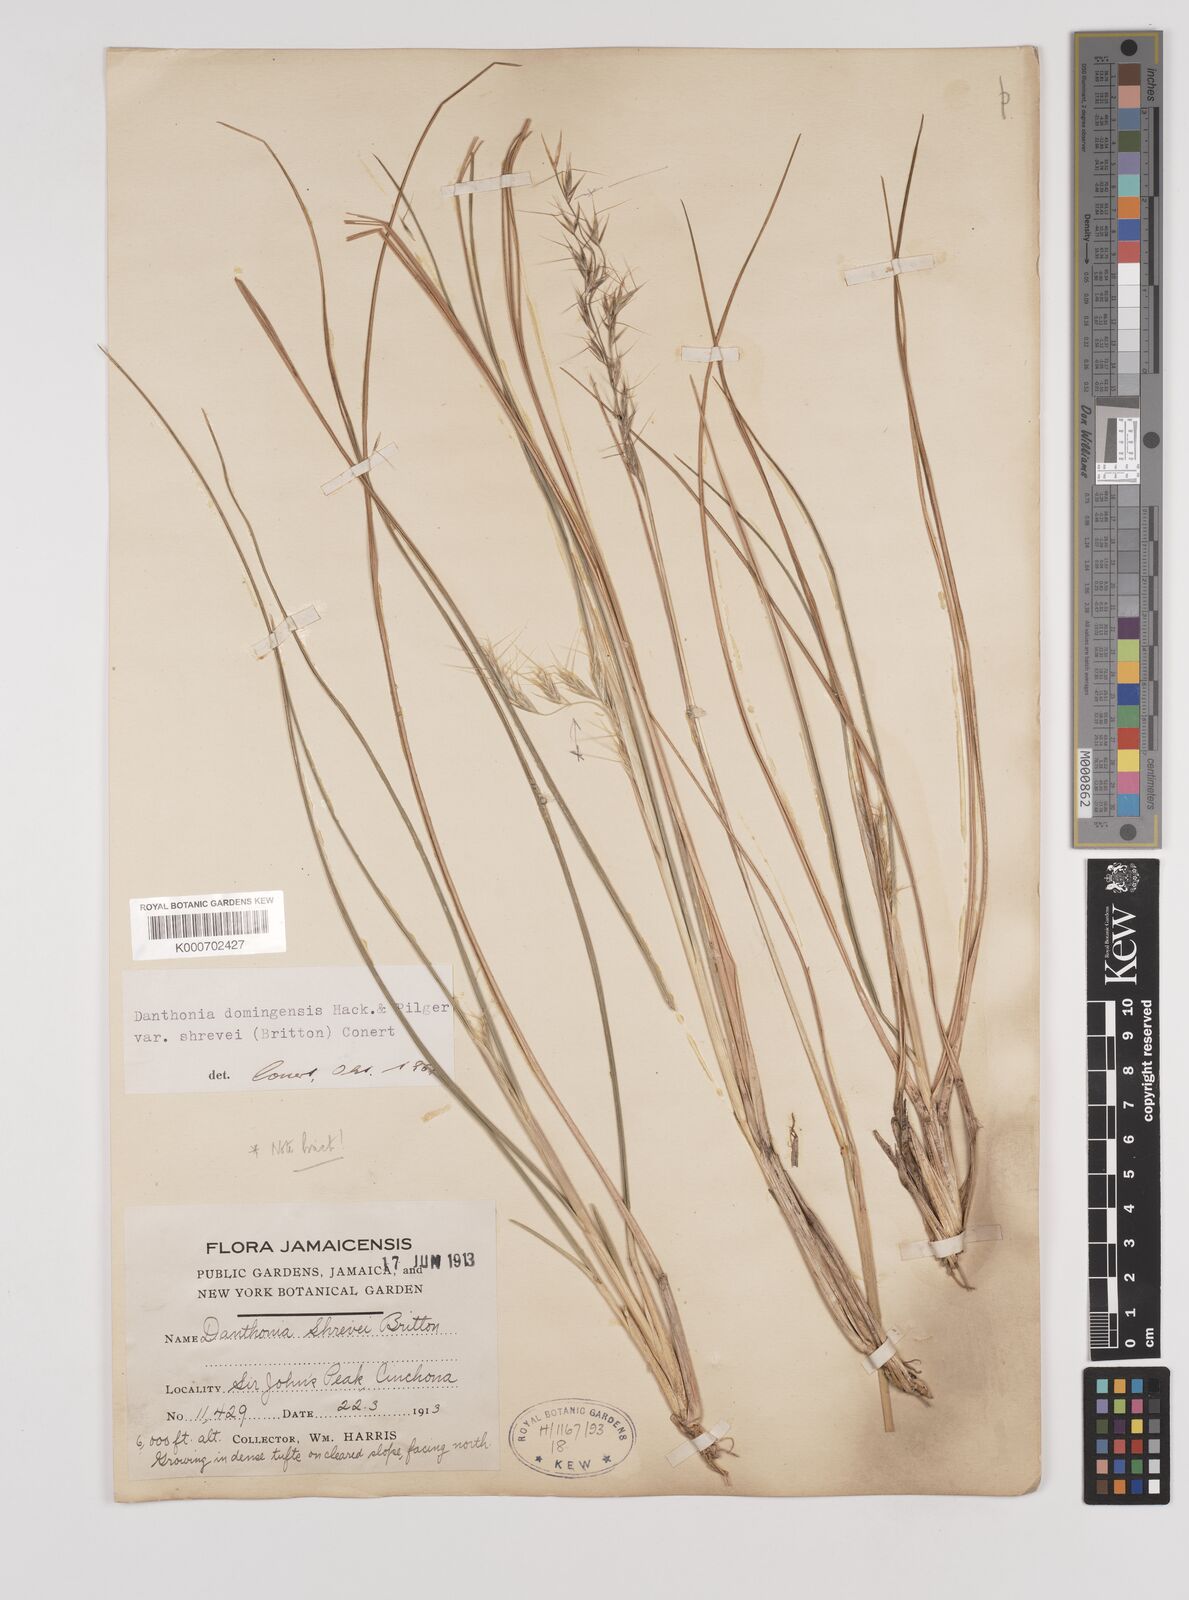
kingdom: Plantae
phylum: Tracheophyta
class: Liliopsida
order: Poales
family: Poaceae
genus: Danthonia
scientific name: Danthonia domingensis
